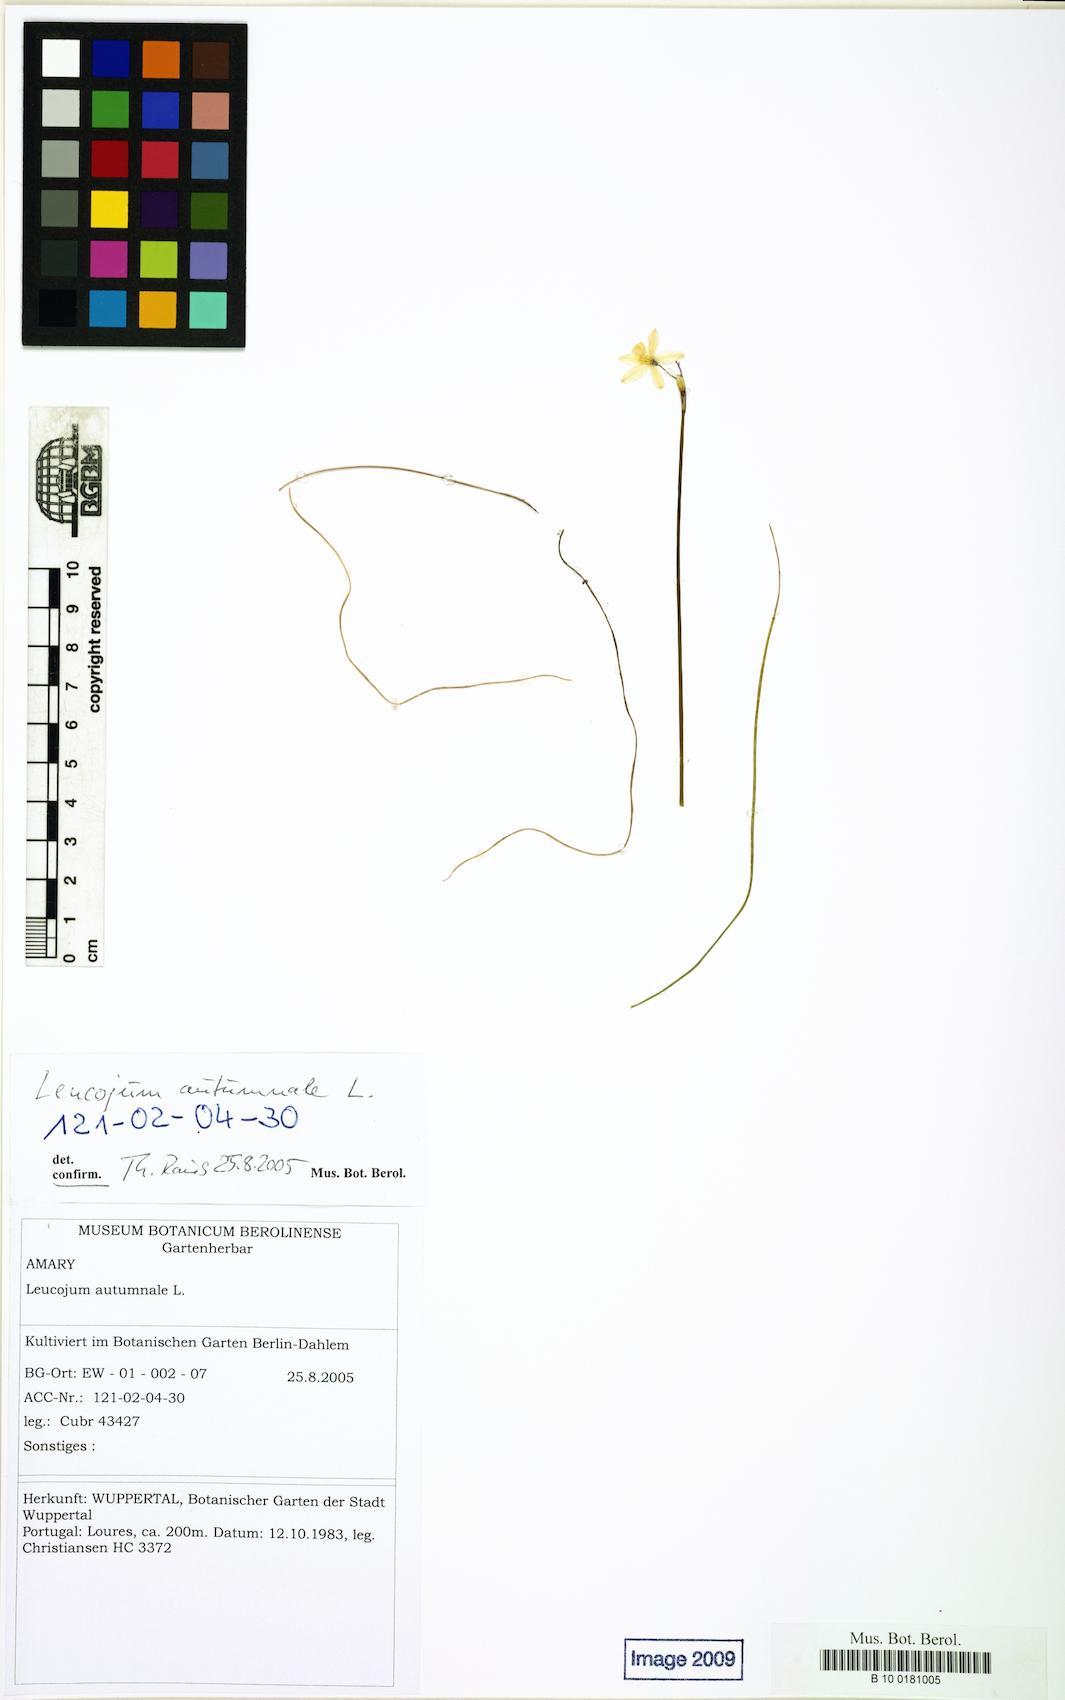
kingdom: Plantae
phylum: Tracheophyta
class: Liliopsida
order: Asparagales
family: Amaryllidaceae
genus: Acis
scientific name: Acis autumnalis
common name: Autumn snowflake
